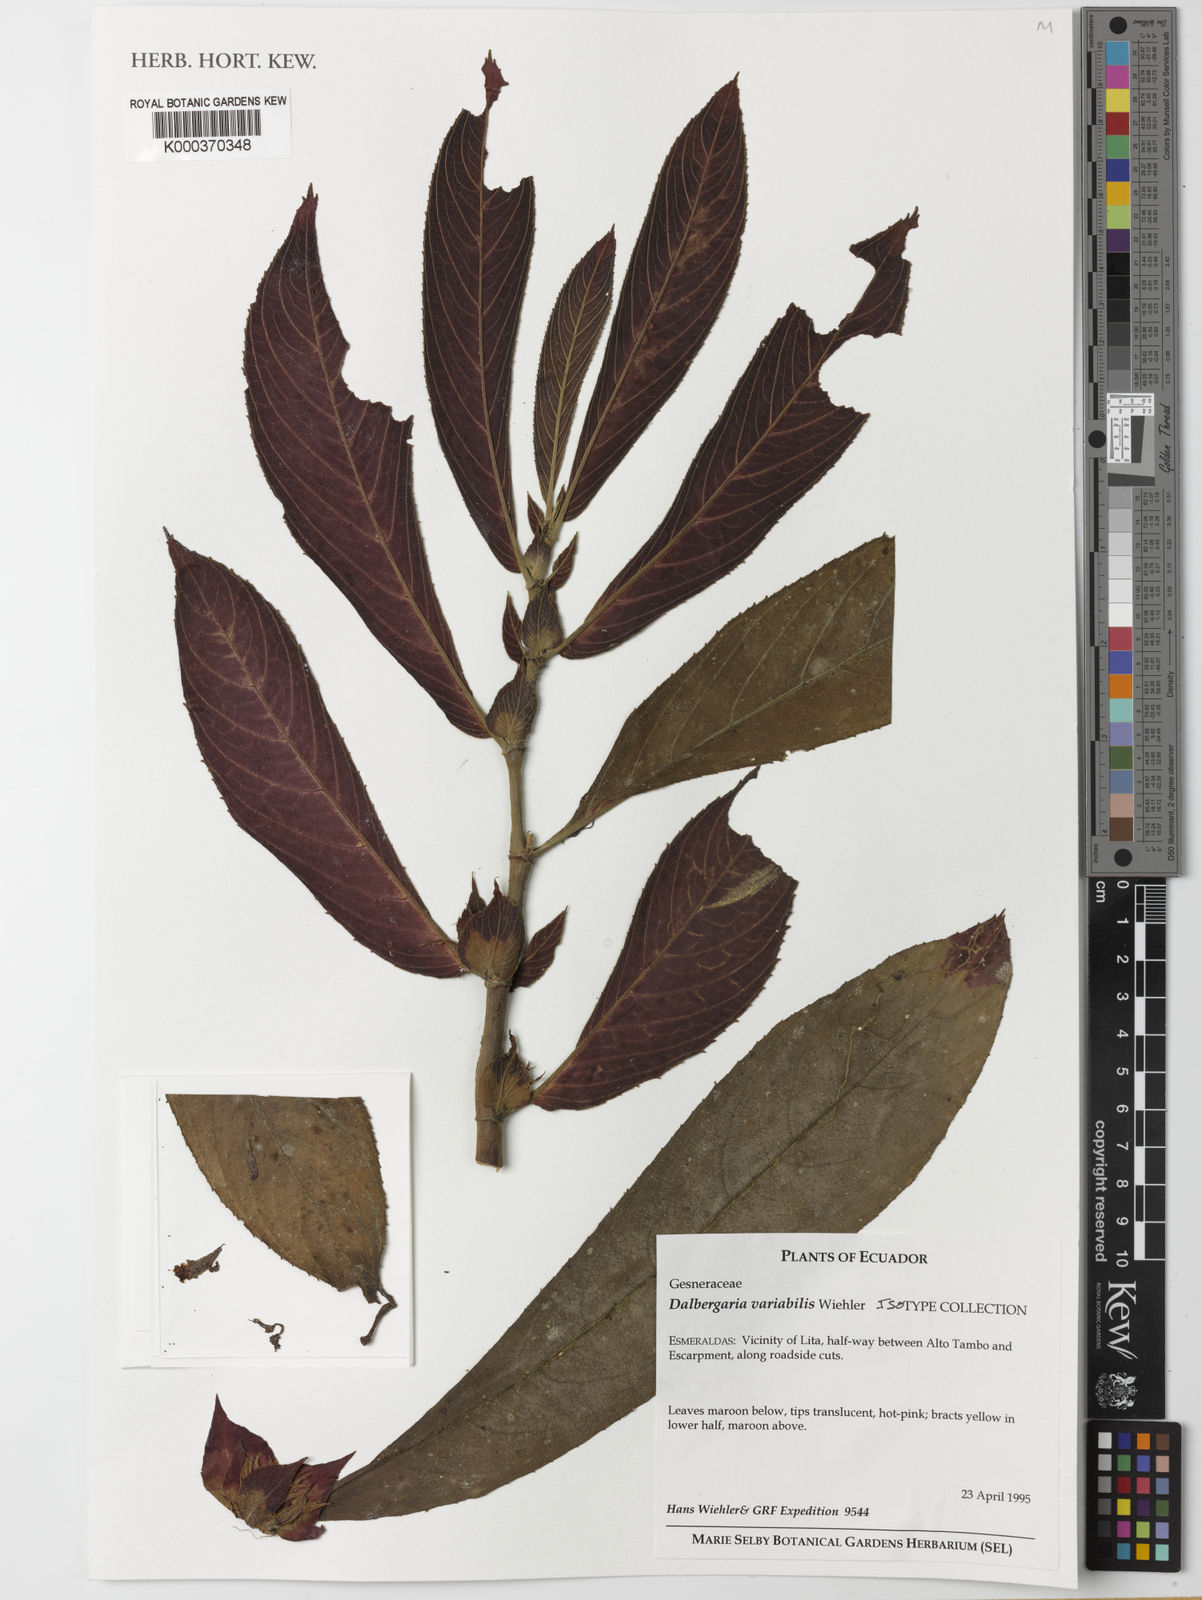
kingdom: Plantae
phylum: Tracheophyta
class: Magnoliopsida
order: Lamiales
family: Gesneriaceae
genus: Columnea
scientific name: Columnea rubriacuta
